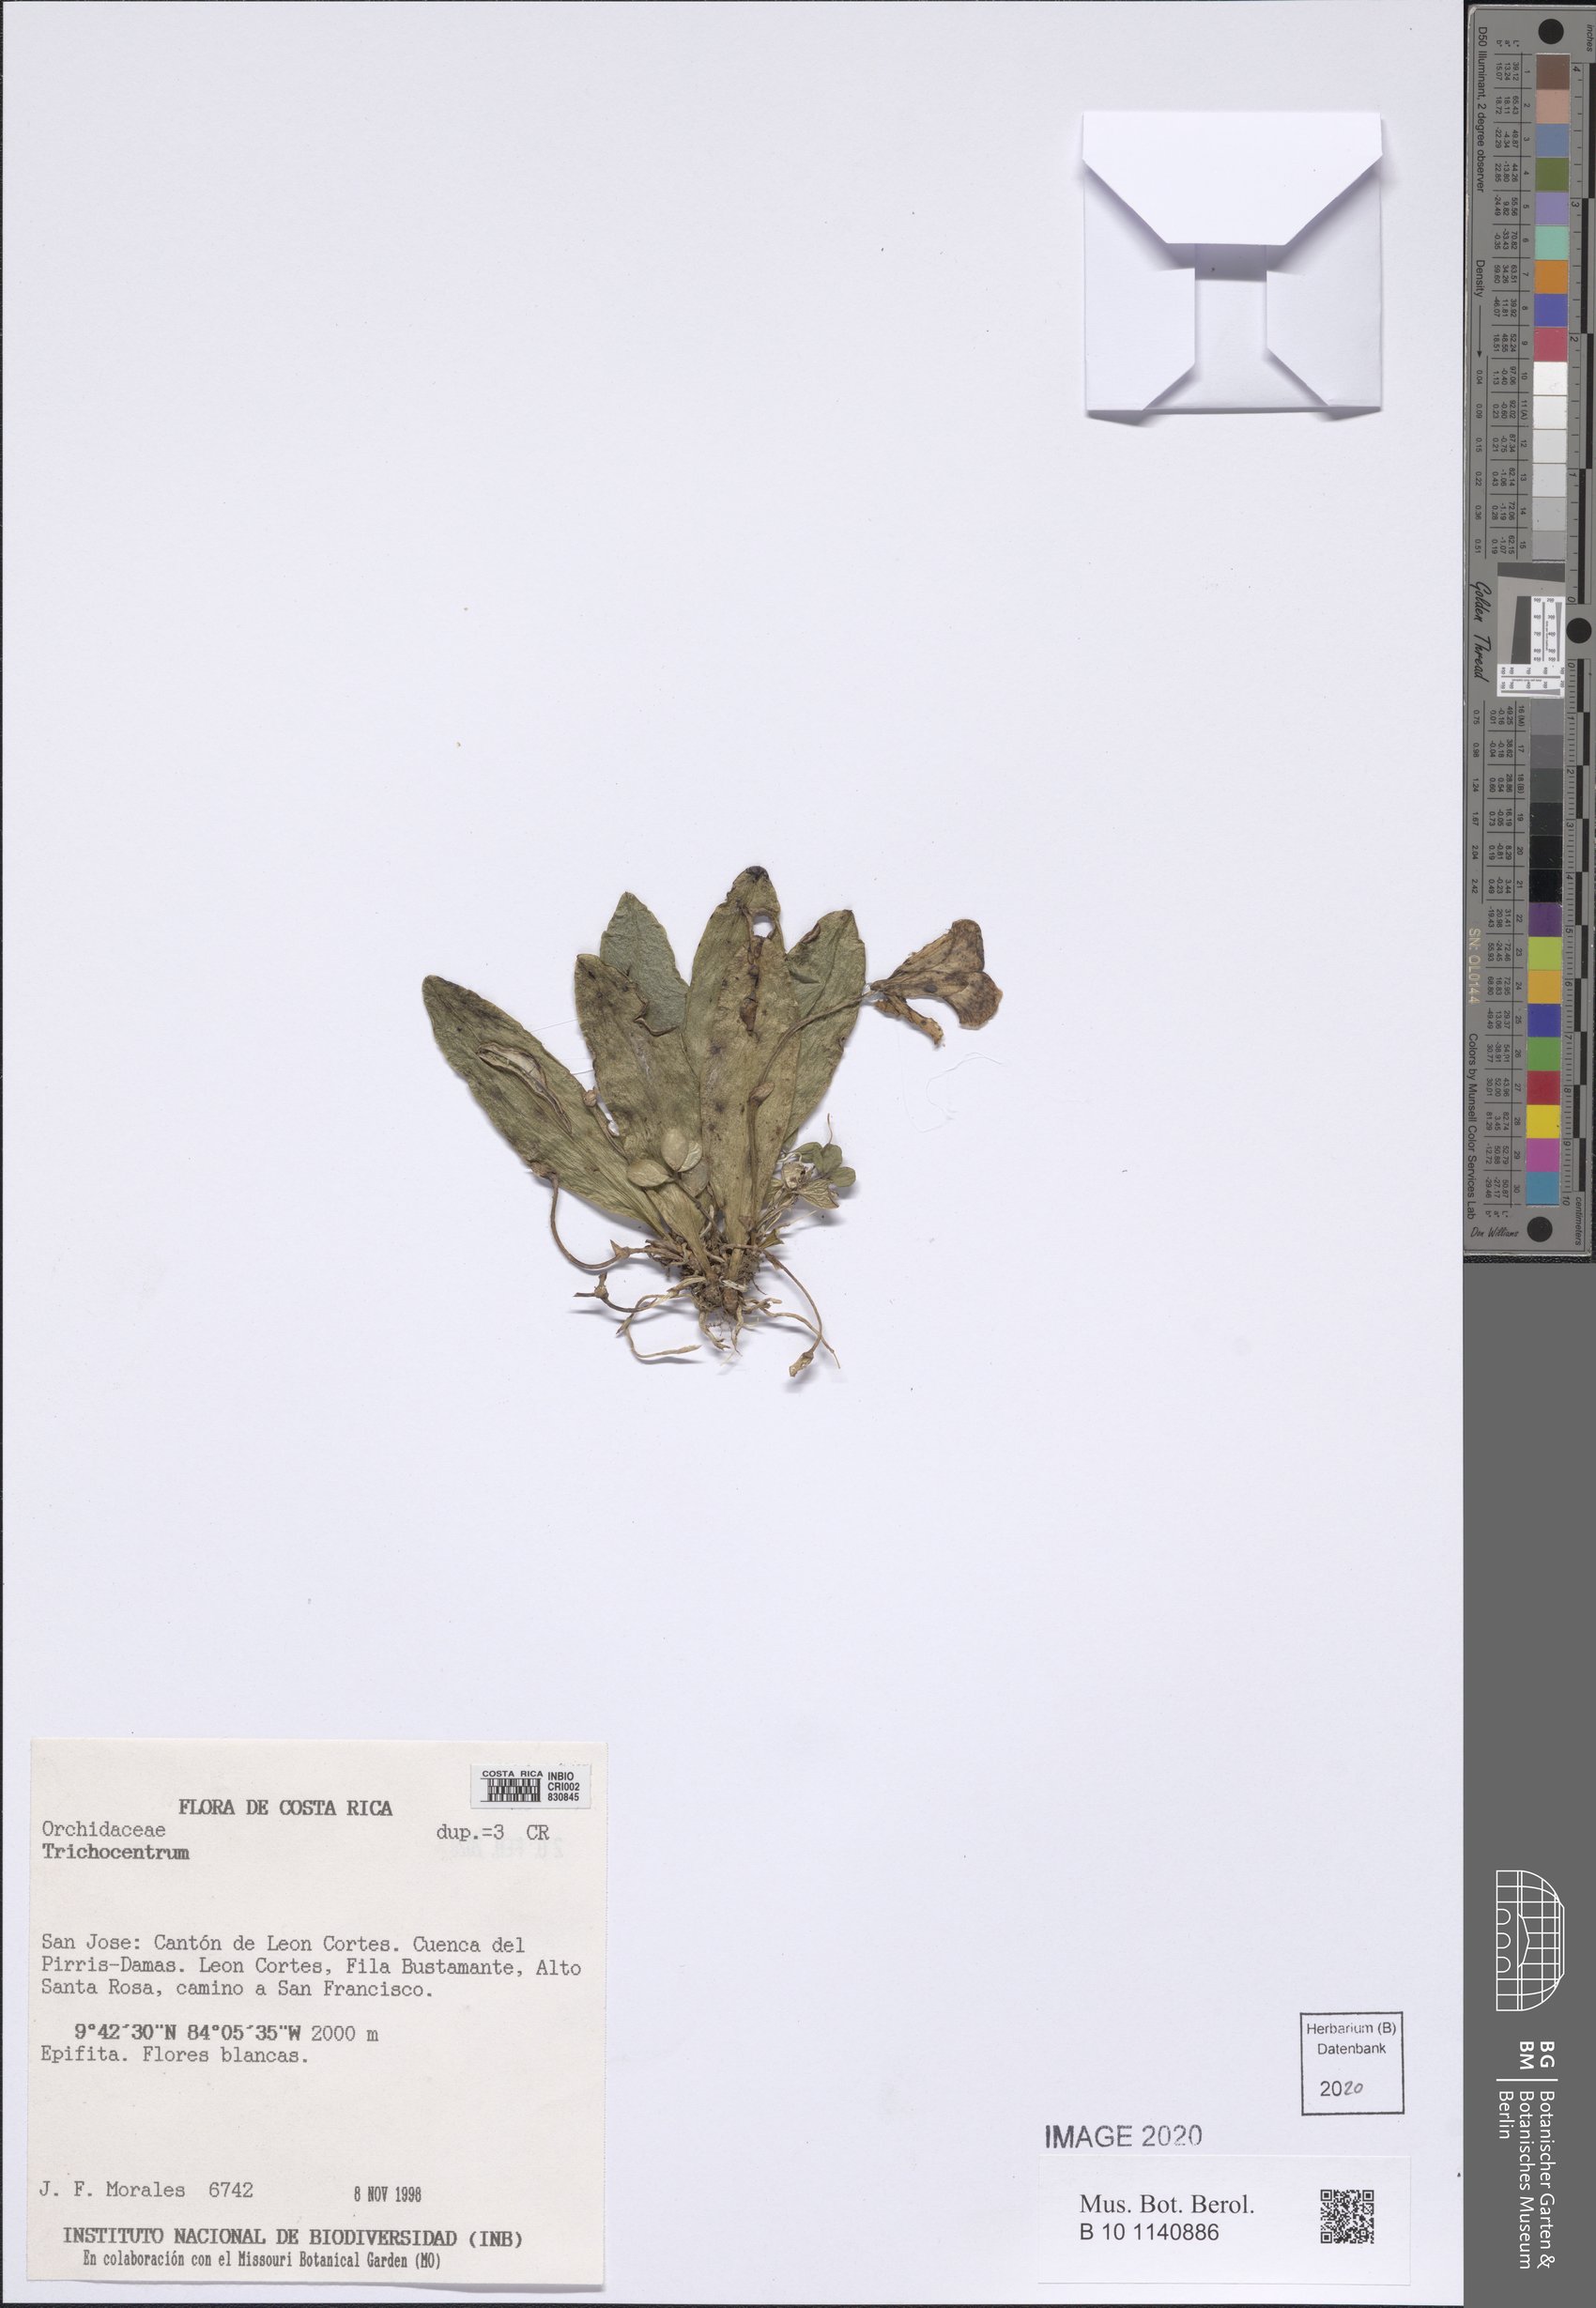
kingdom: Plantae
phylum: Tracheophyta
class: Liliopsida
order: Asparagales
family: Orchidaceae
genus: Trichocentrum
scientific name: Trichocentrum
